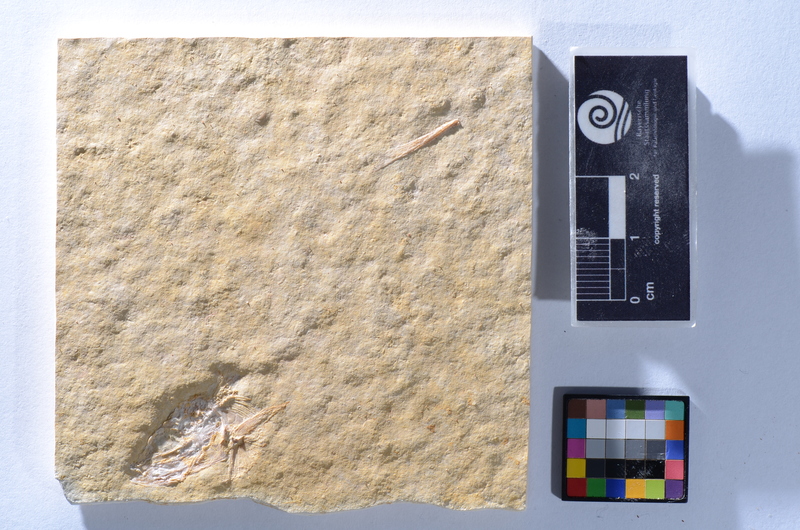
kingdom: Animalia
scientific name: Animalia
